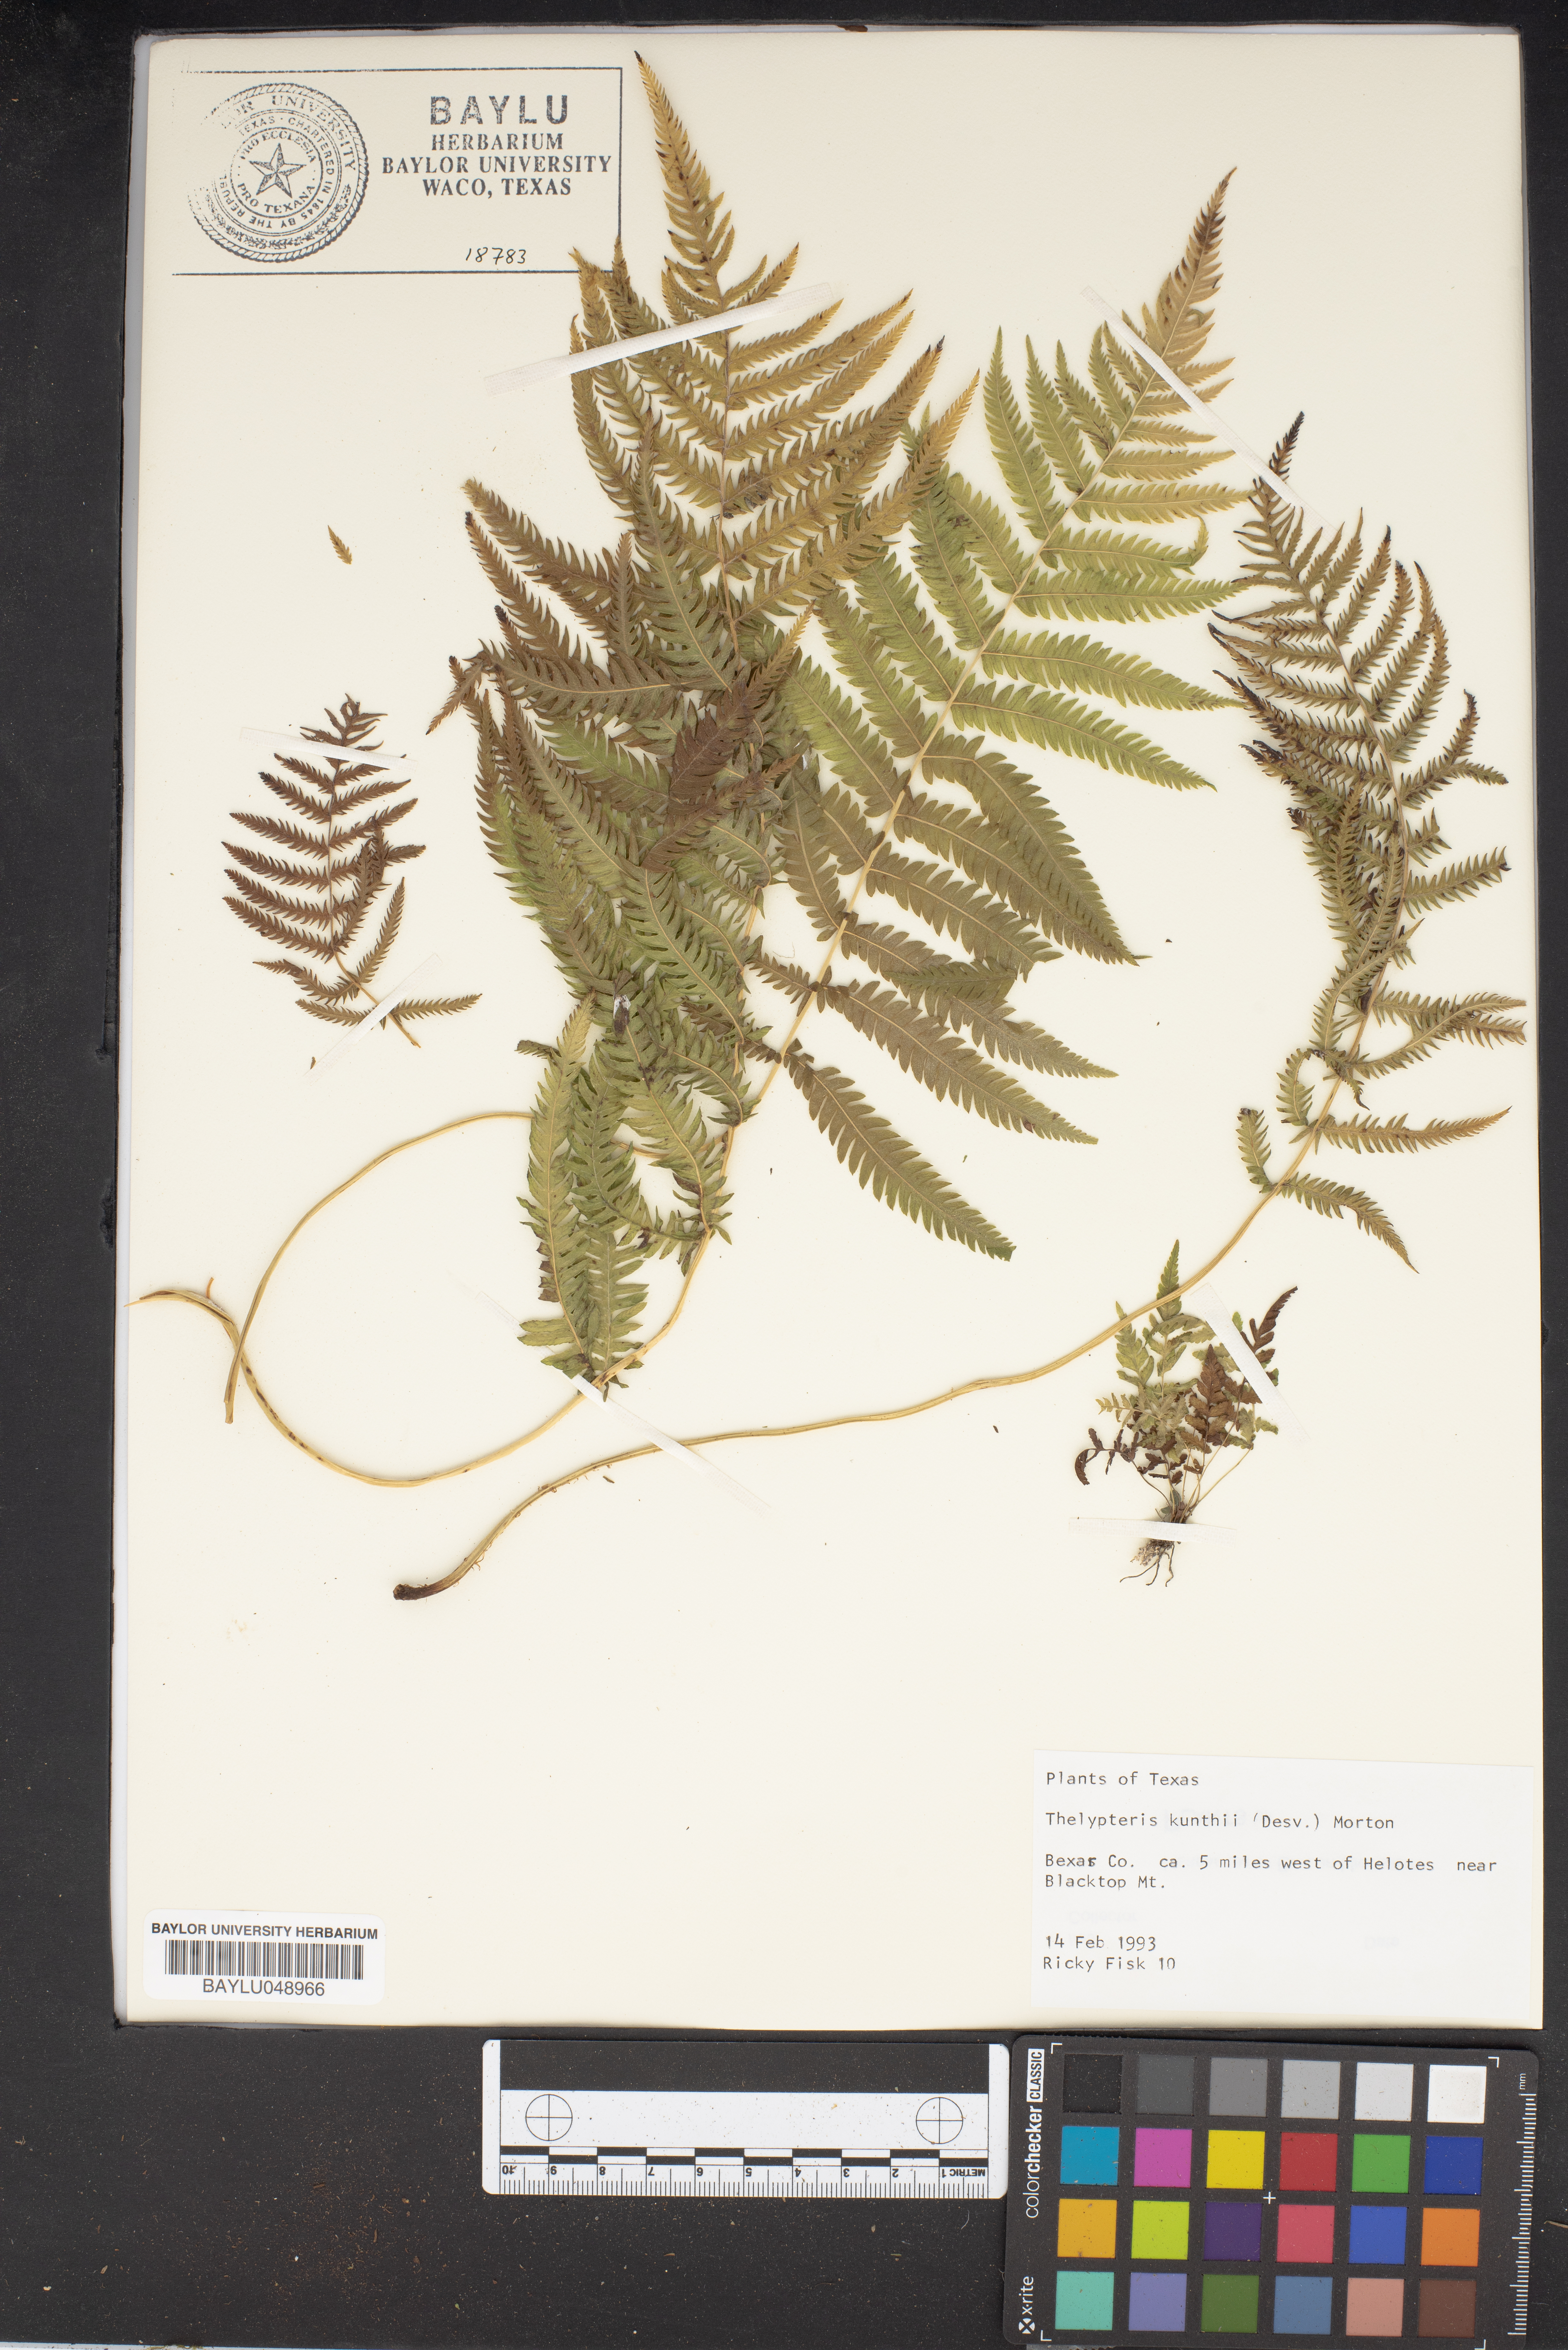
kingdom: Plantae
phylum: Tracheophyta
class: Polypodiopsida
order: Polypodiales
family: Thelypteridaceae
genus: Pelazoneuron
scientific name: Pelazoneuron kunthii
